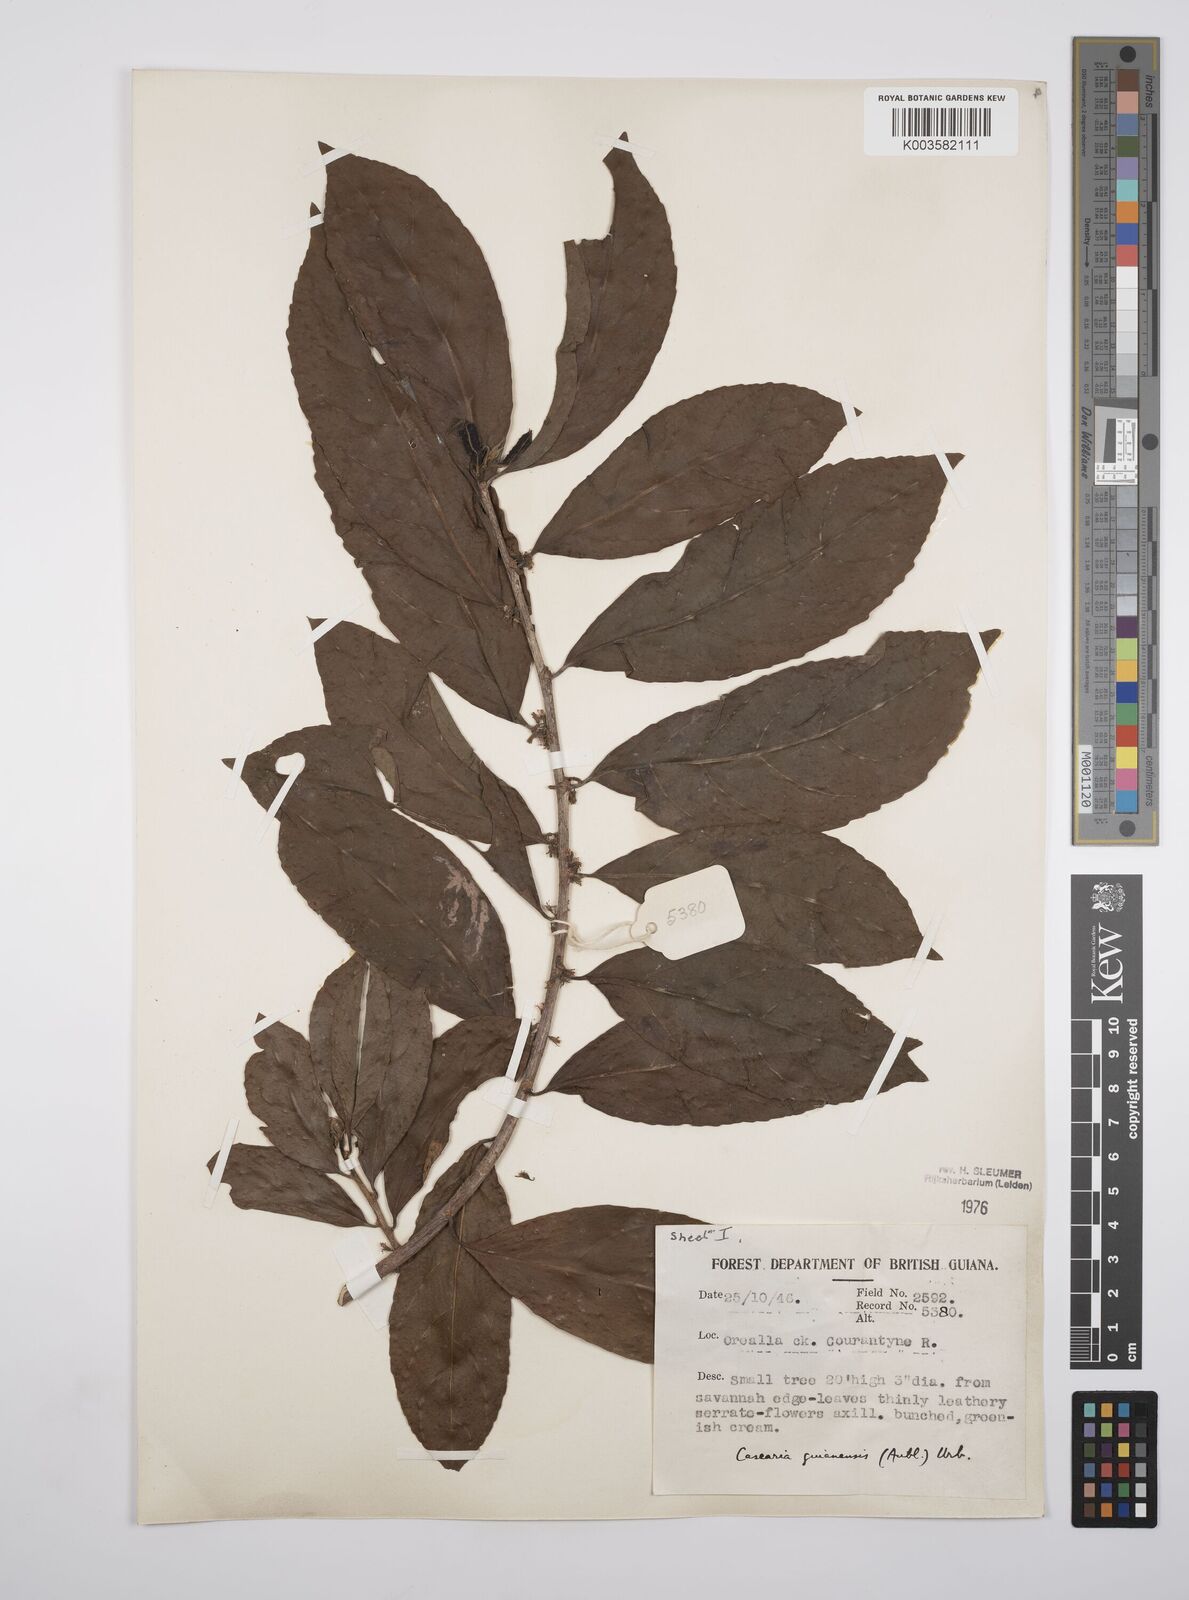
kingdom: Plantae
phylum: Tracheophyta
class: Magnoliopsida
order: Malpighiales
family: Salicaceae
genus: Casearia
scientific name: Casearia guianensis
